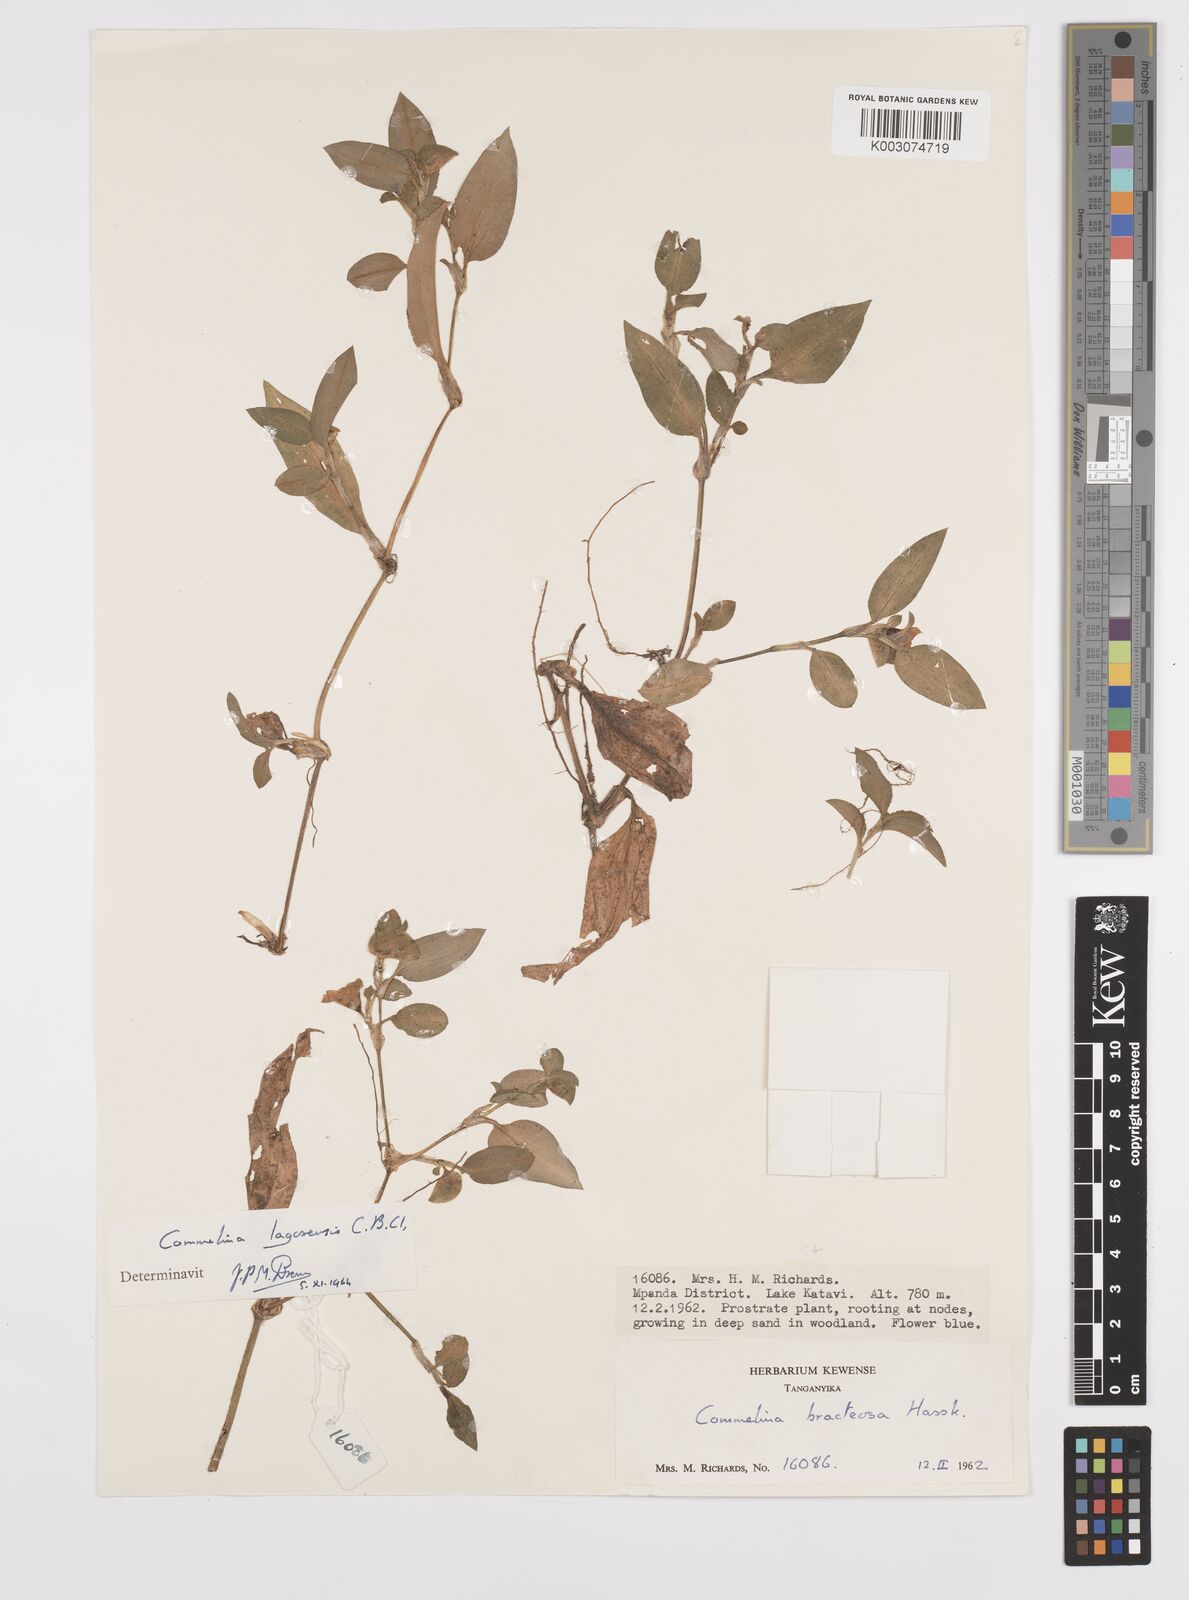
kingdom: Plantae
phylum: Tracheophyta
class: Liliopsida
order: Commelinales
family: Commelinaceae
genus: Commelina
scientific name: Commelina bracteosa
